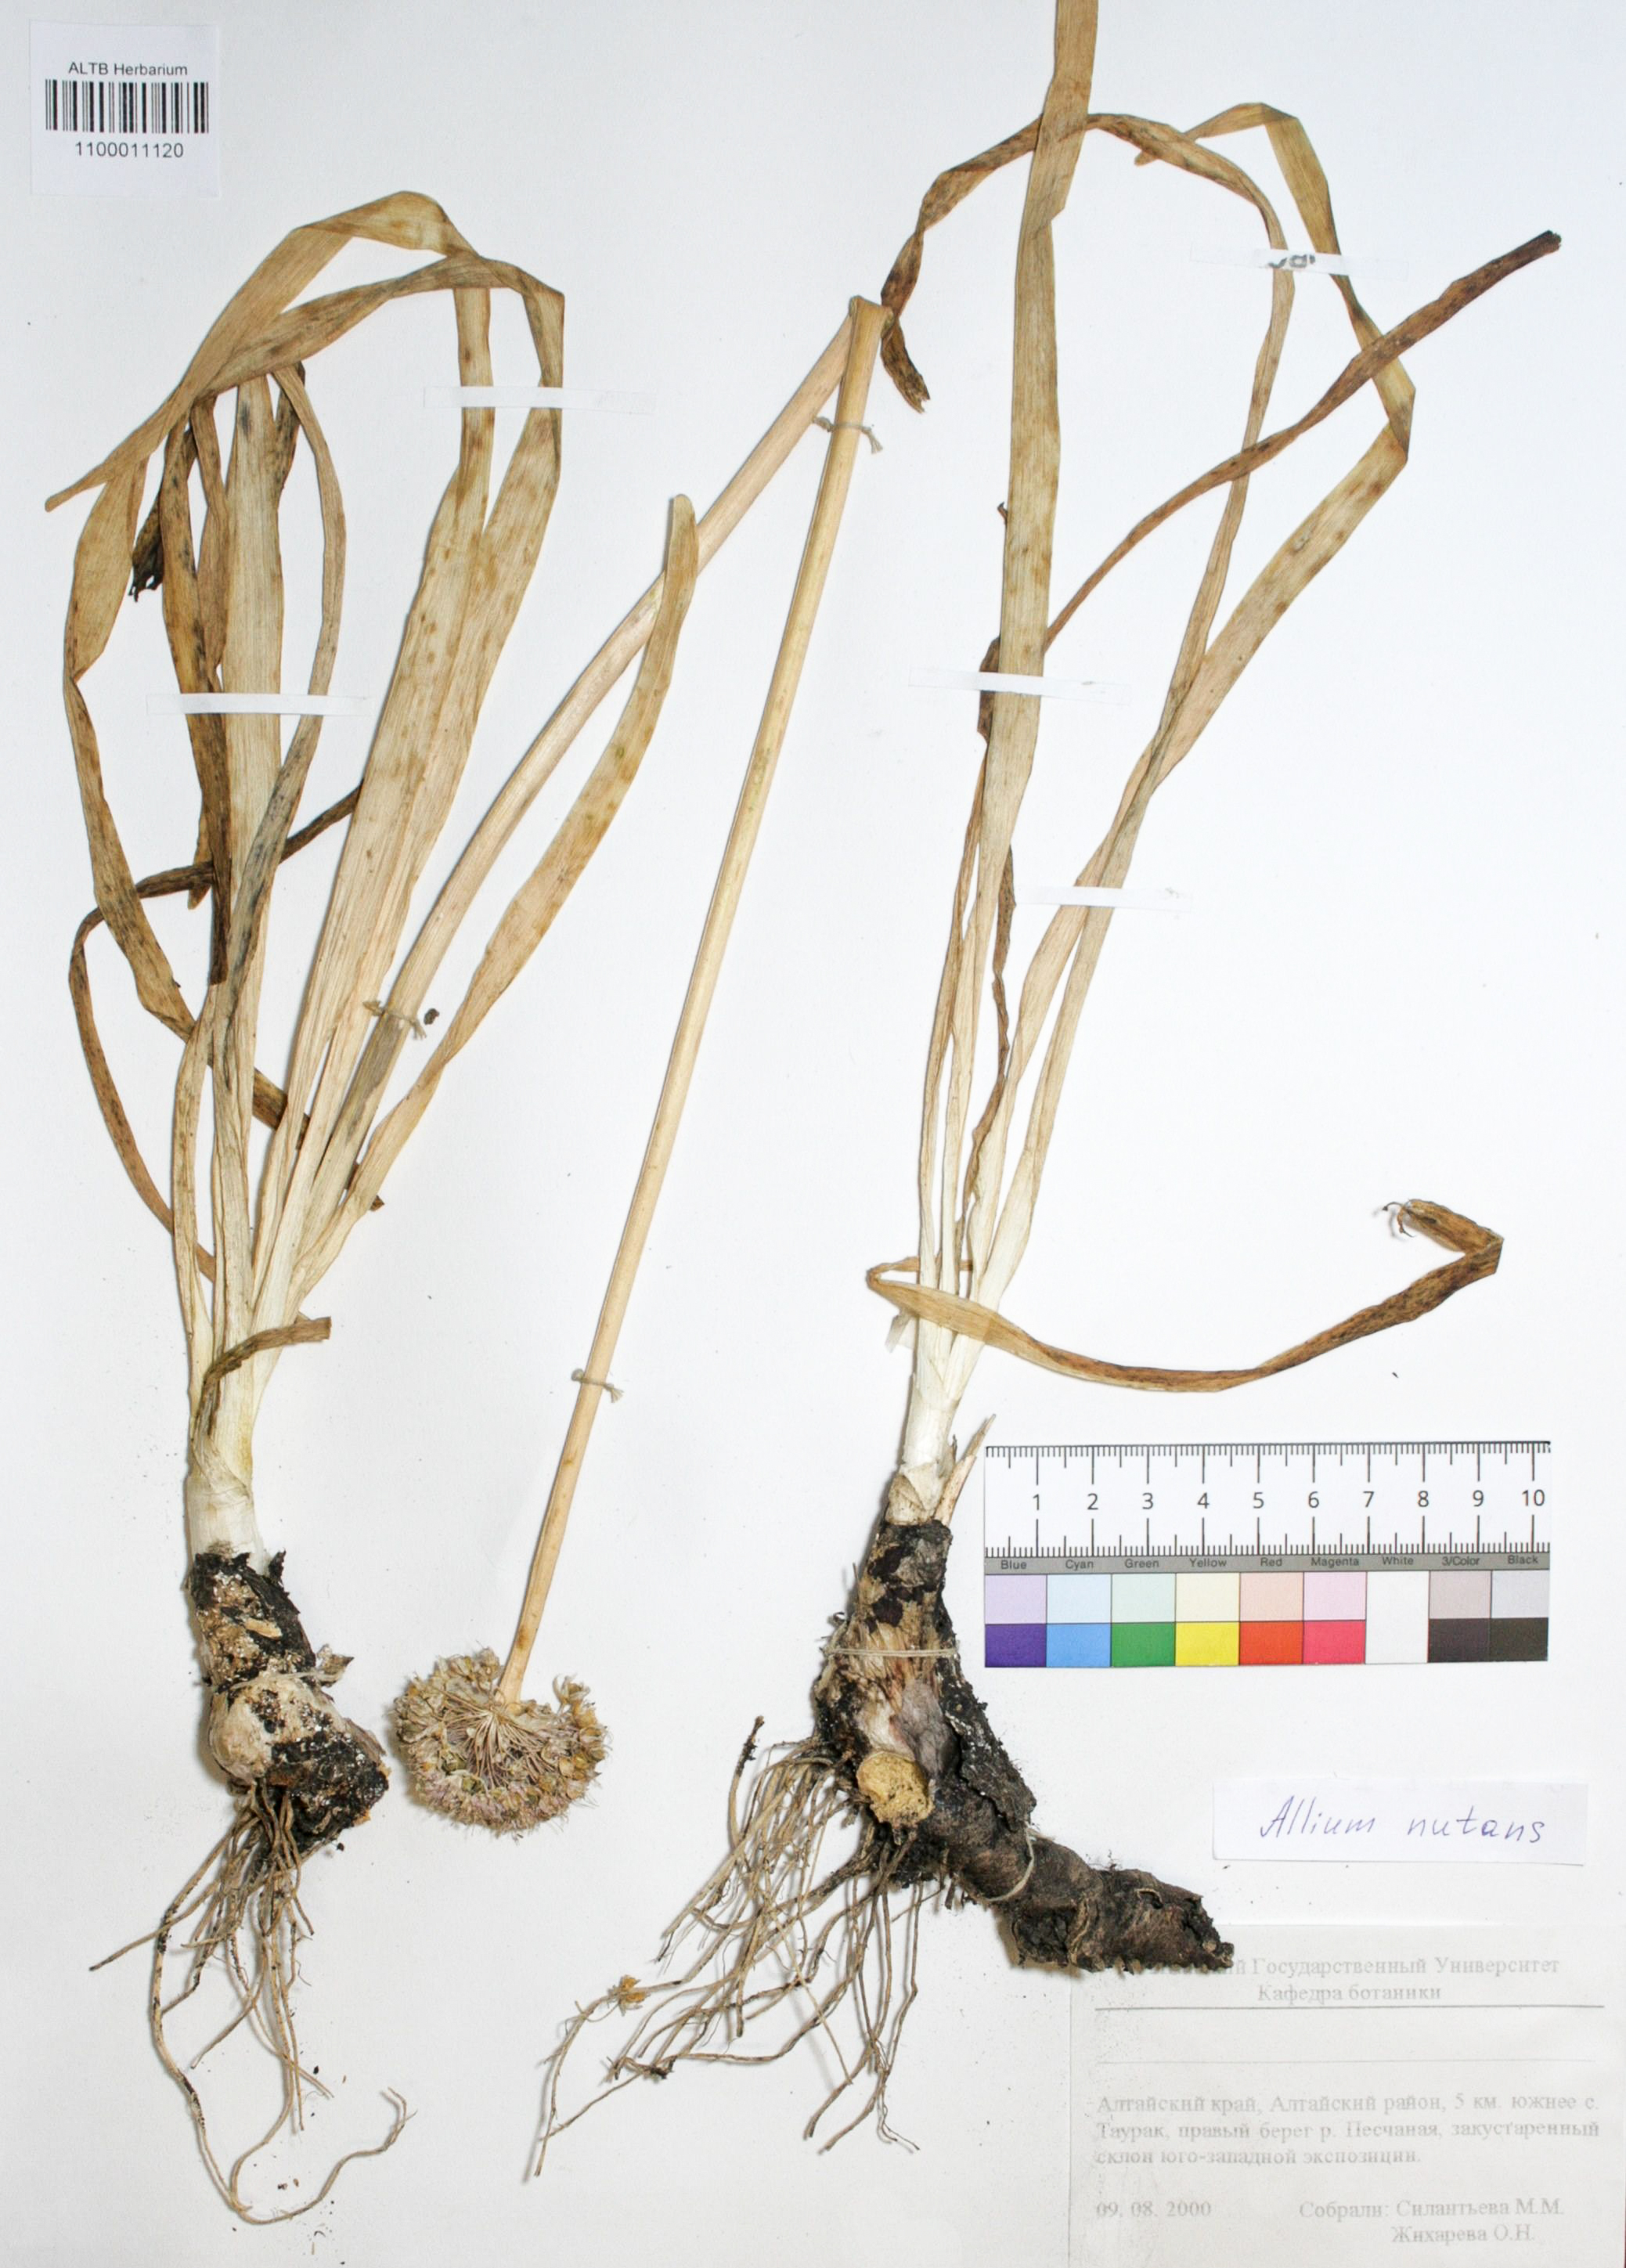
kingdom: Plantae
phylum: Tracheophyta
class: Liliopsida
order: Asparagales
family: Amaryllidaceae
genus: Allium
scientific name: Allium nutans
